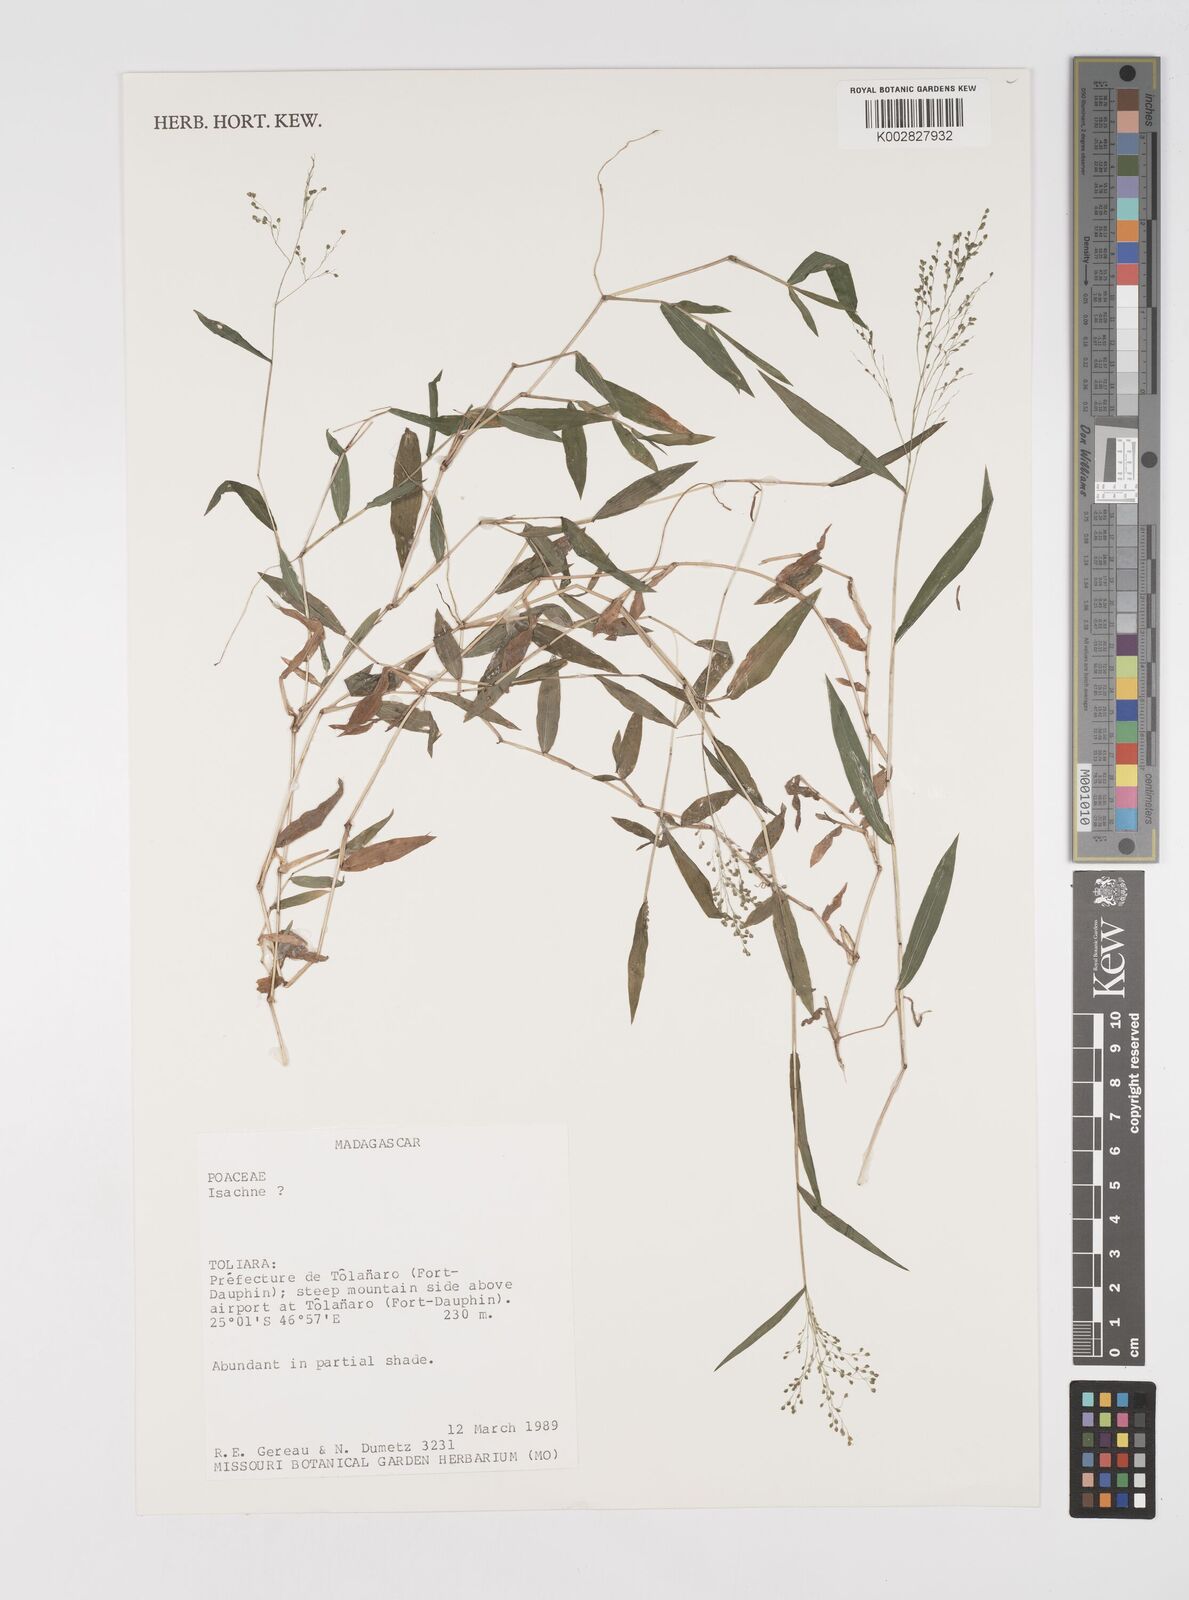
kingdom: Plantae
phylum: Tracheophyta
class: Liliopsida
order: Poales
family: Poaceae
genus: Cyrtococcum
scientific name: Cyrtococcum bosseri
